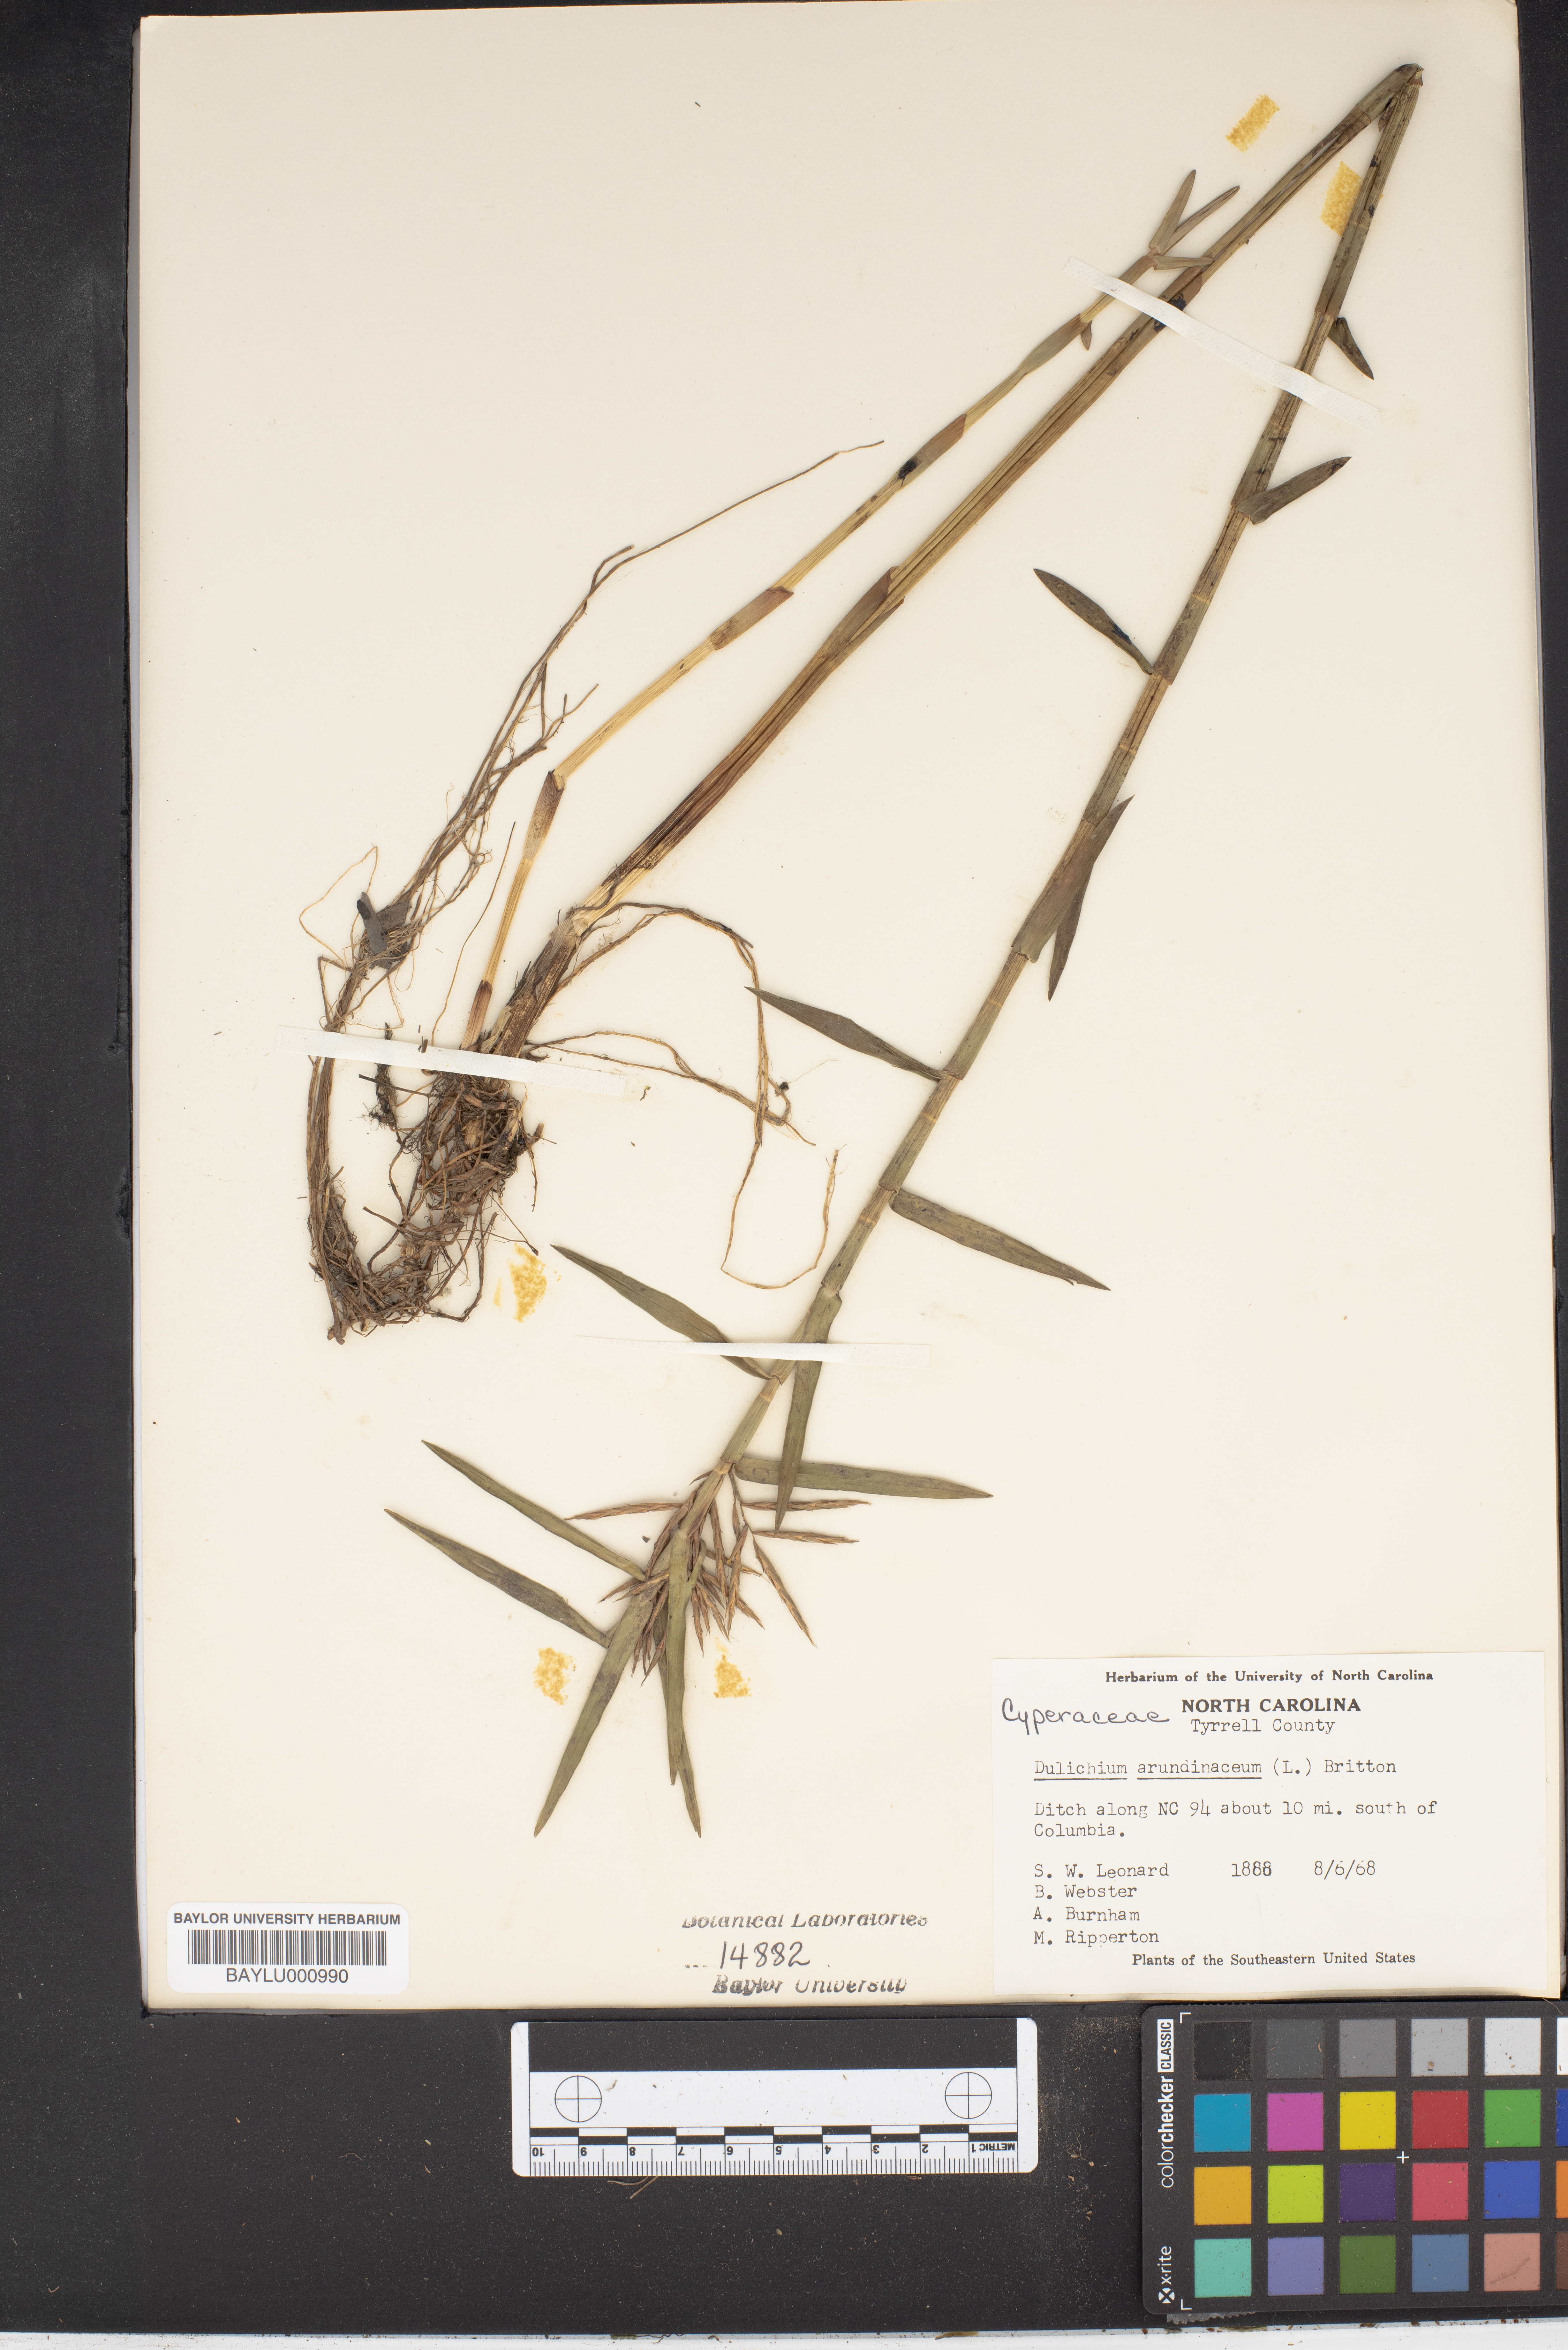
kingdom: Plantae
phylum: Tracheophyta
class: Liliopsida
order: Poales
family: Cyperaceae
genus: Dulichium
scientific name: Dulichium arundinaceum
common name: Three-way sedge
